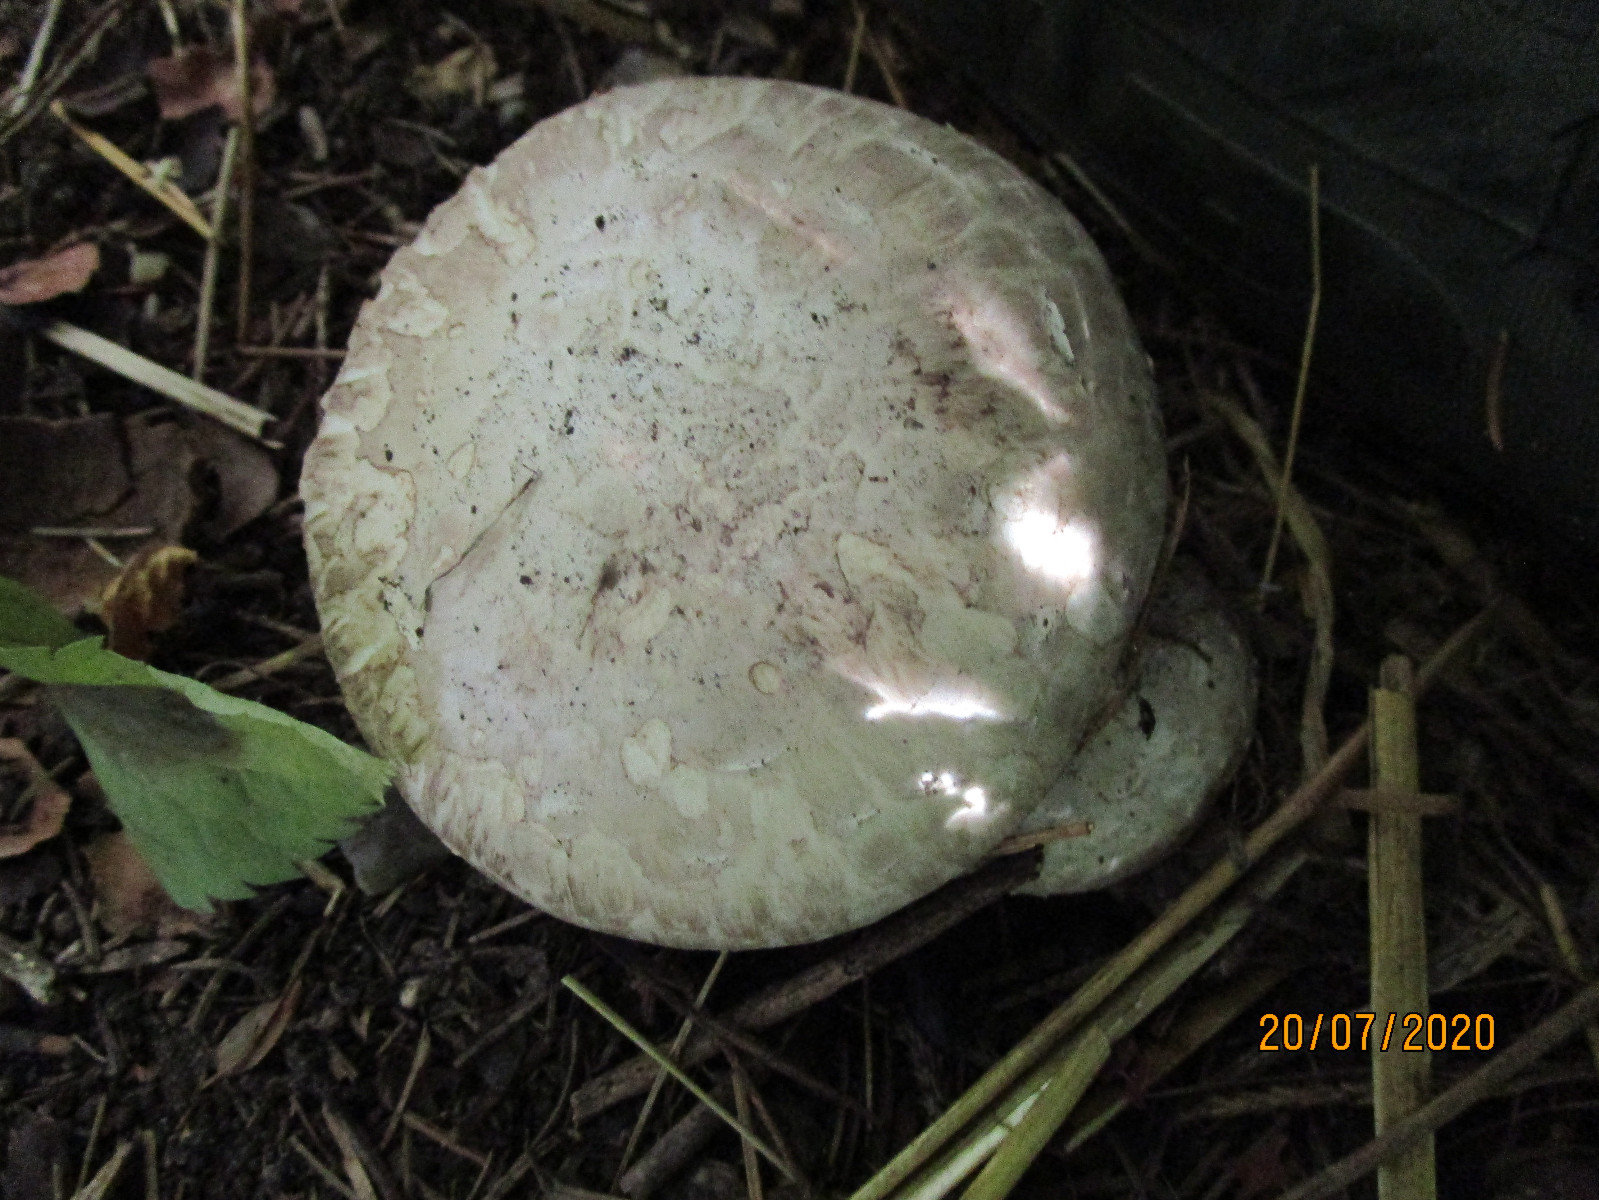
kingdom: Fungi
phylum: Basidiomycota
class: Agaricomycetes
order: Agaricales
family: Agaricaceae
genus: Agaricus
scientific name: Agaricus subfloccosus
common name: randskællet champignon
